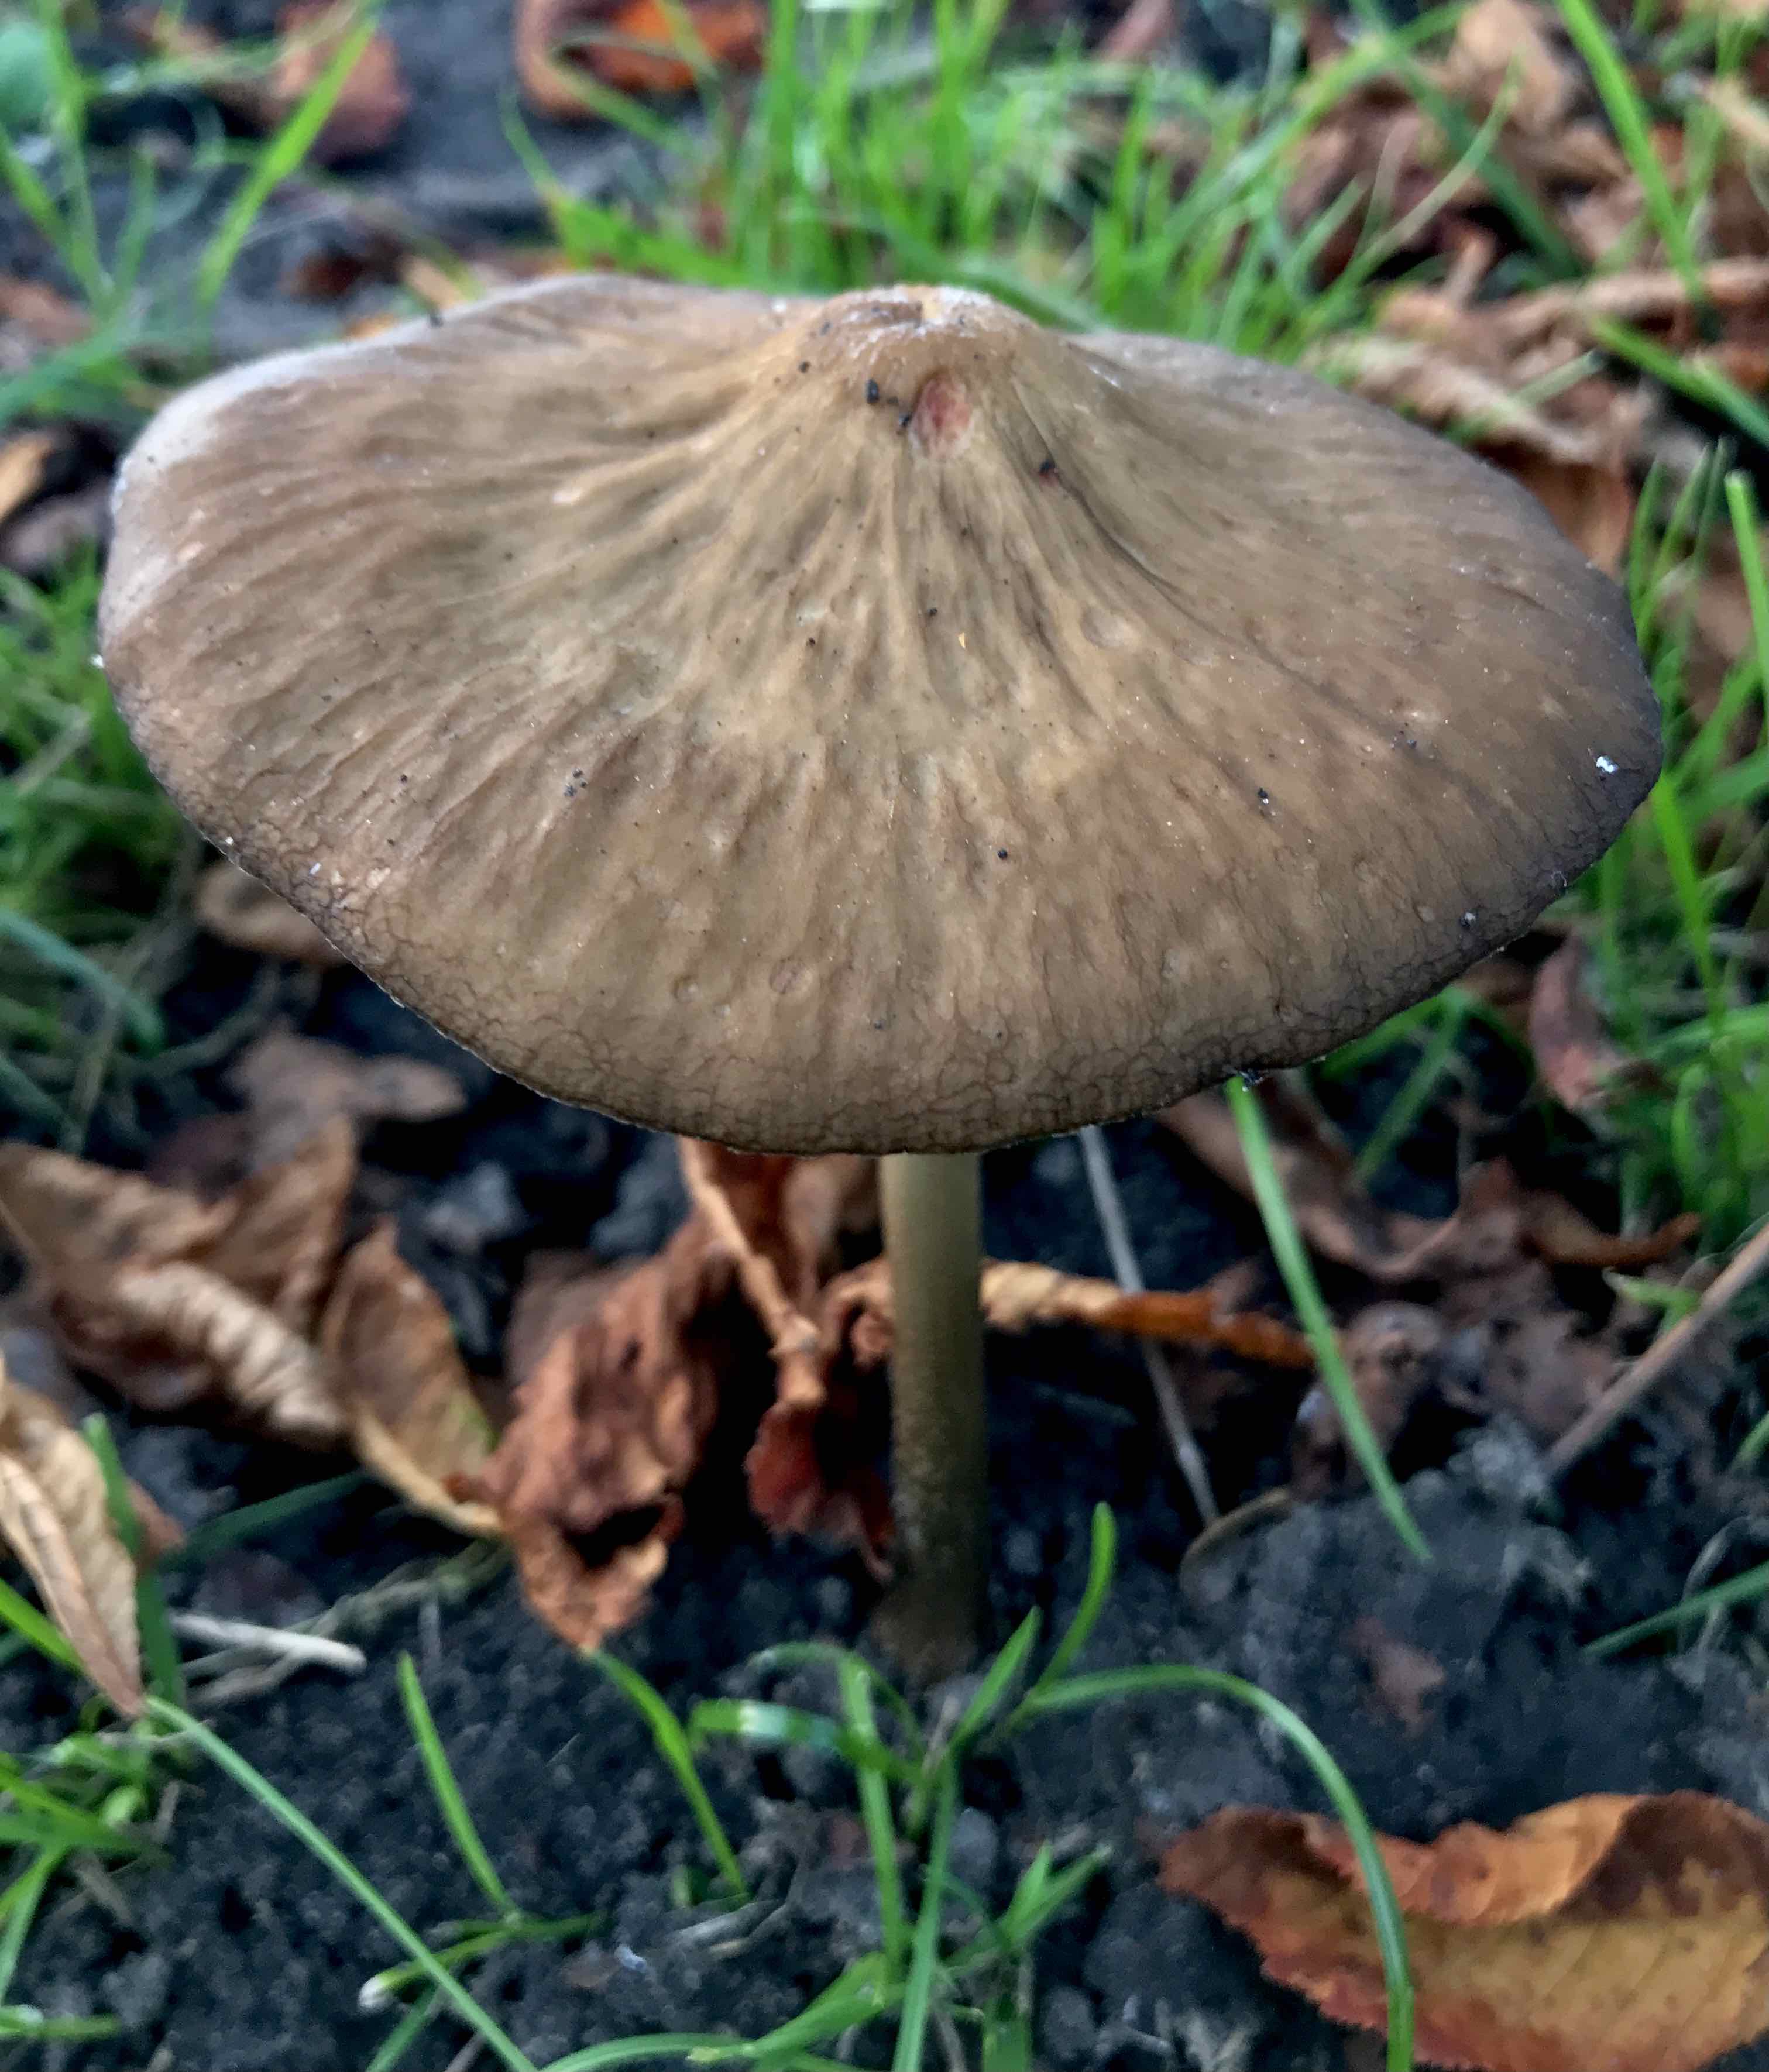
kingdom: Fungi
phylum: Basidiomycota
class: Agaricomycetes
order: Agaricales
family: Physalacriaceae
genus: Hymenopellis
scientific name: Hymenopellis radicata
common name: almindelig pælerodshat
